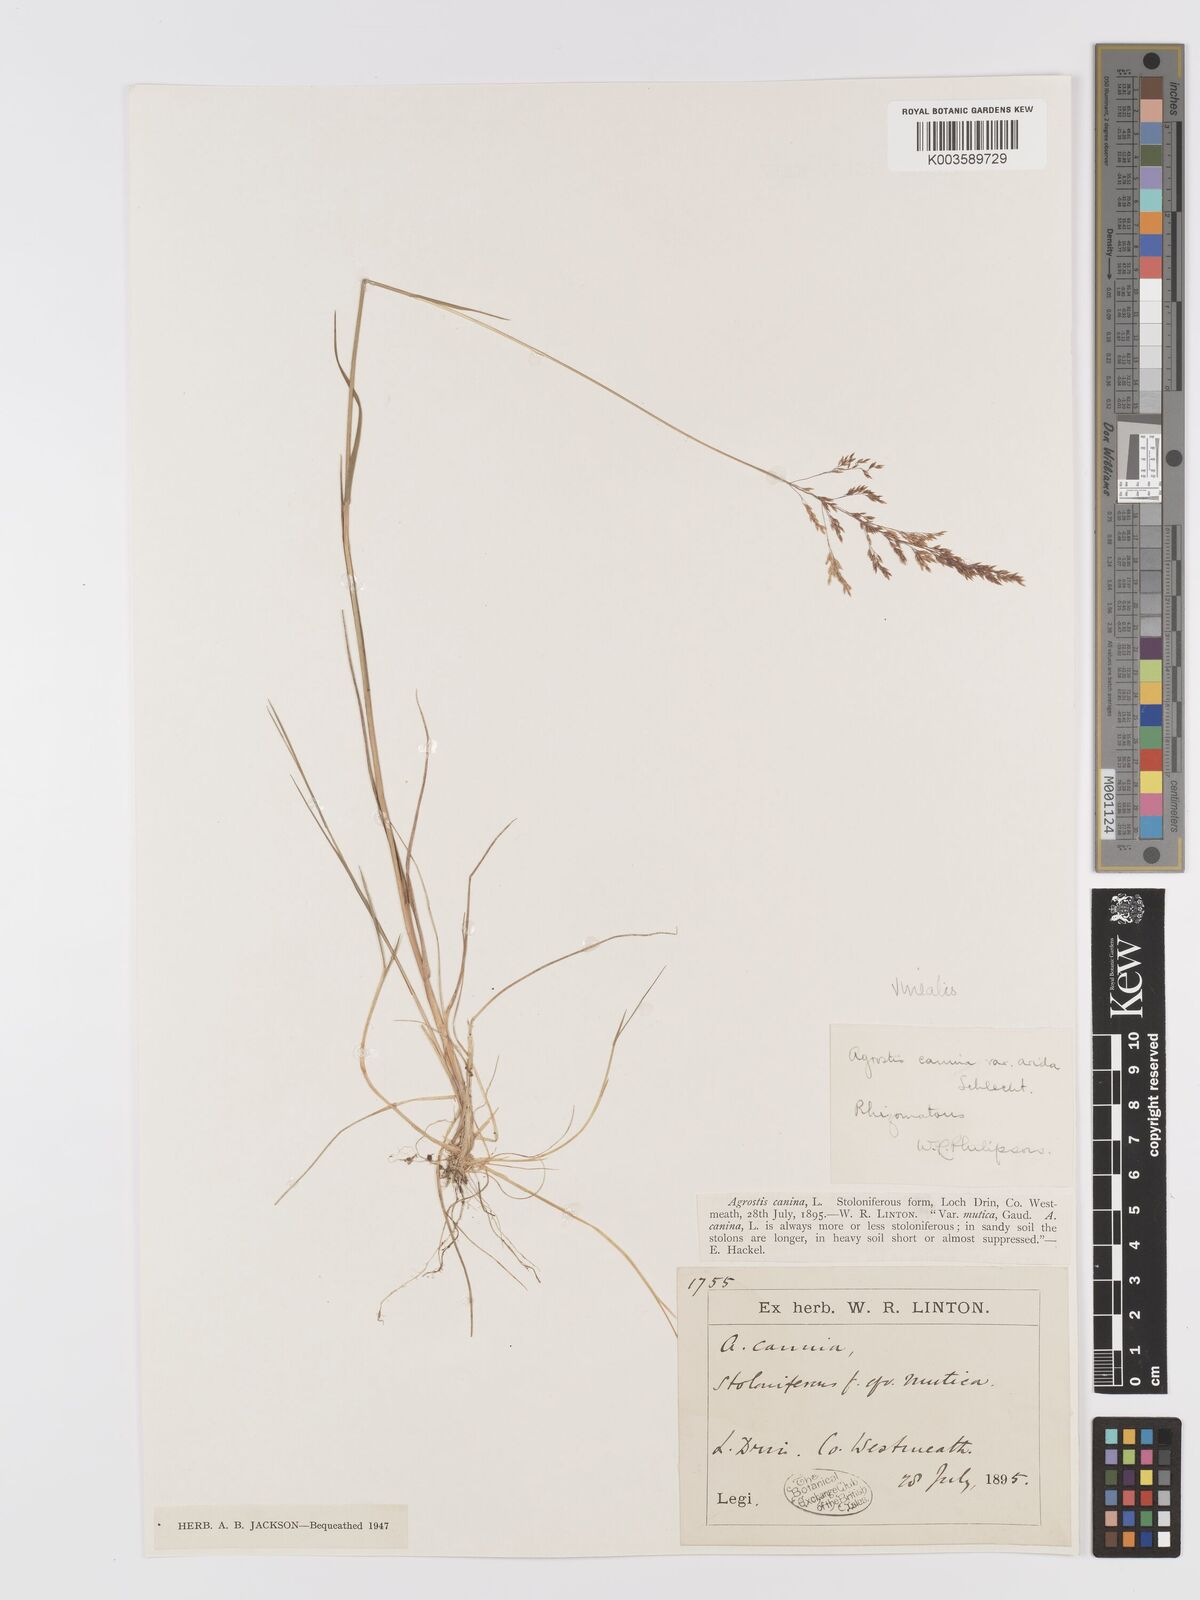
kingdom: Plantae
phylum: Tracheophyta
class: Liliopsida
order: Poales
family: Poaceae
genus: Agrostis
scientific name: Agrostis
